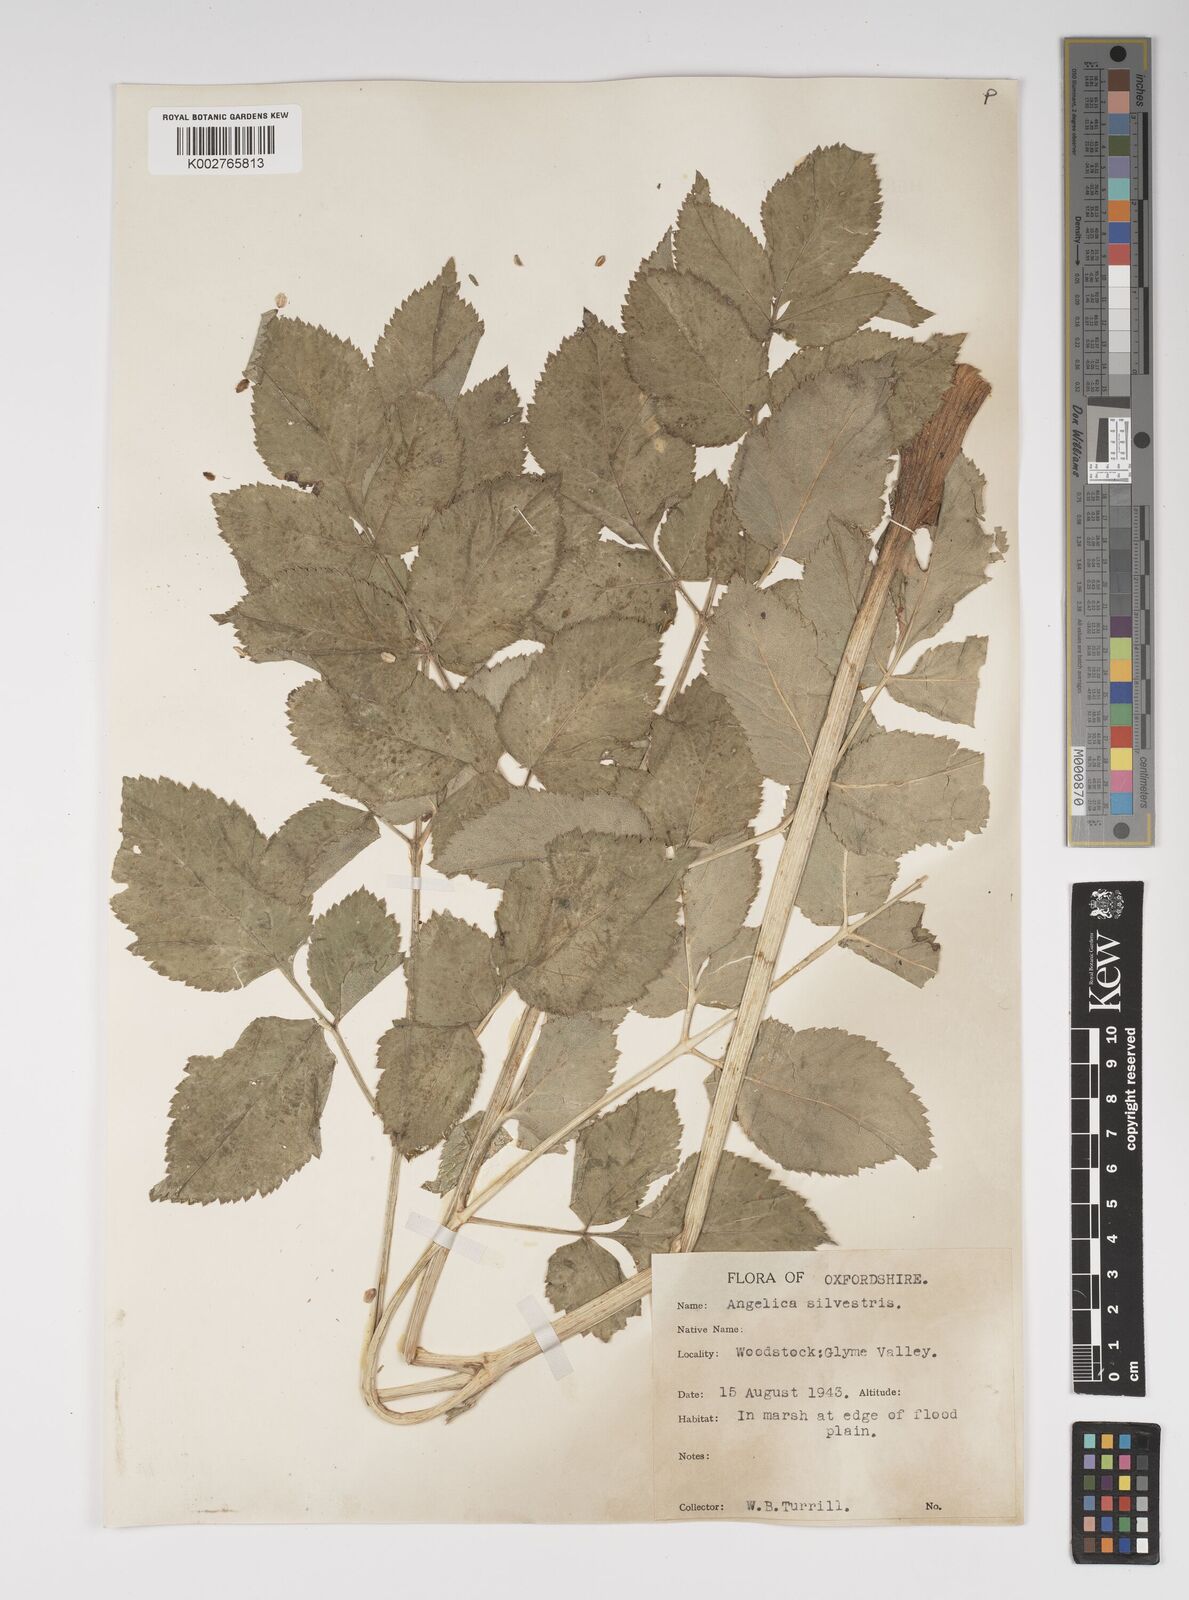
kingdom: Plantae
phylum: Tracheophyta
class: Magnoliopsida
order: Apiales
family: Apiaceae
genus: Angelica
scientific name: Angelica sylvestris
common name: Wild angelica
